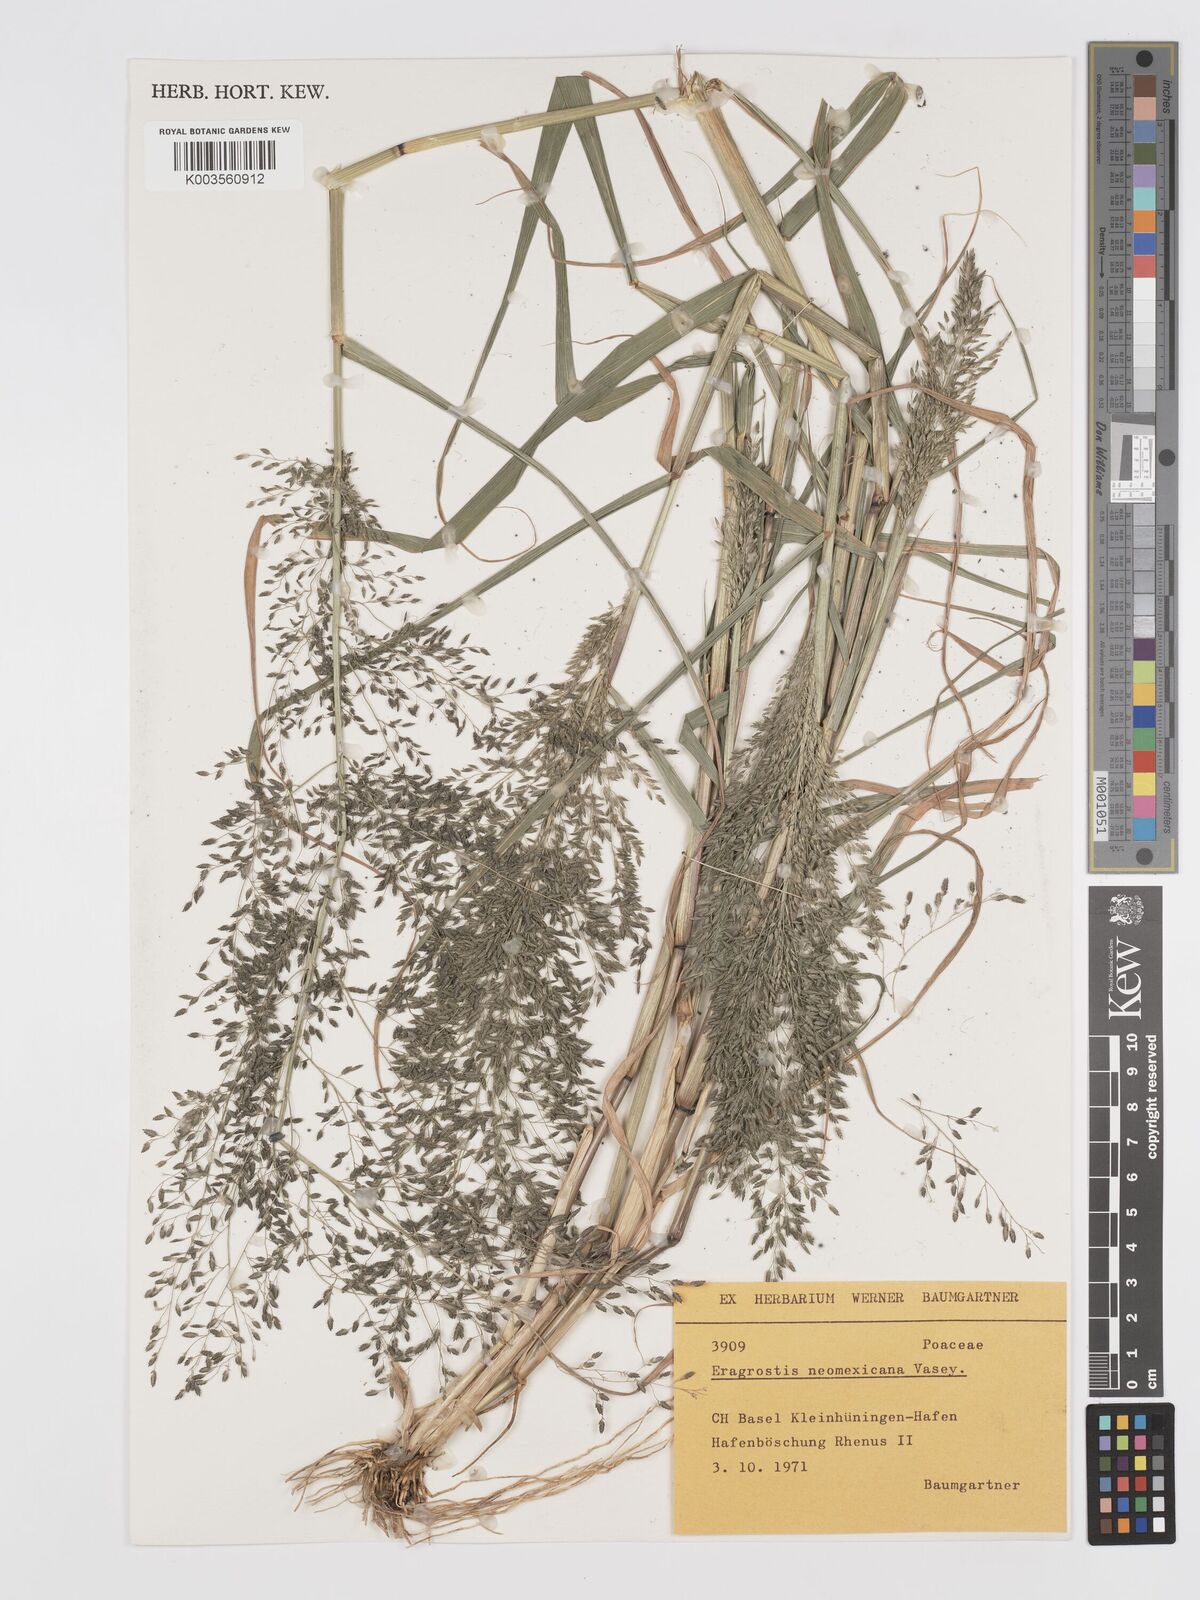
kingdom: Plantae
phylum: Tracheophyta
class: Liliopsida
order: Poales
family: Poaceae
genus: Eragrostis
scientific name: Eragrostis mexicana
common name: Mexican love grass
